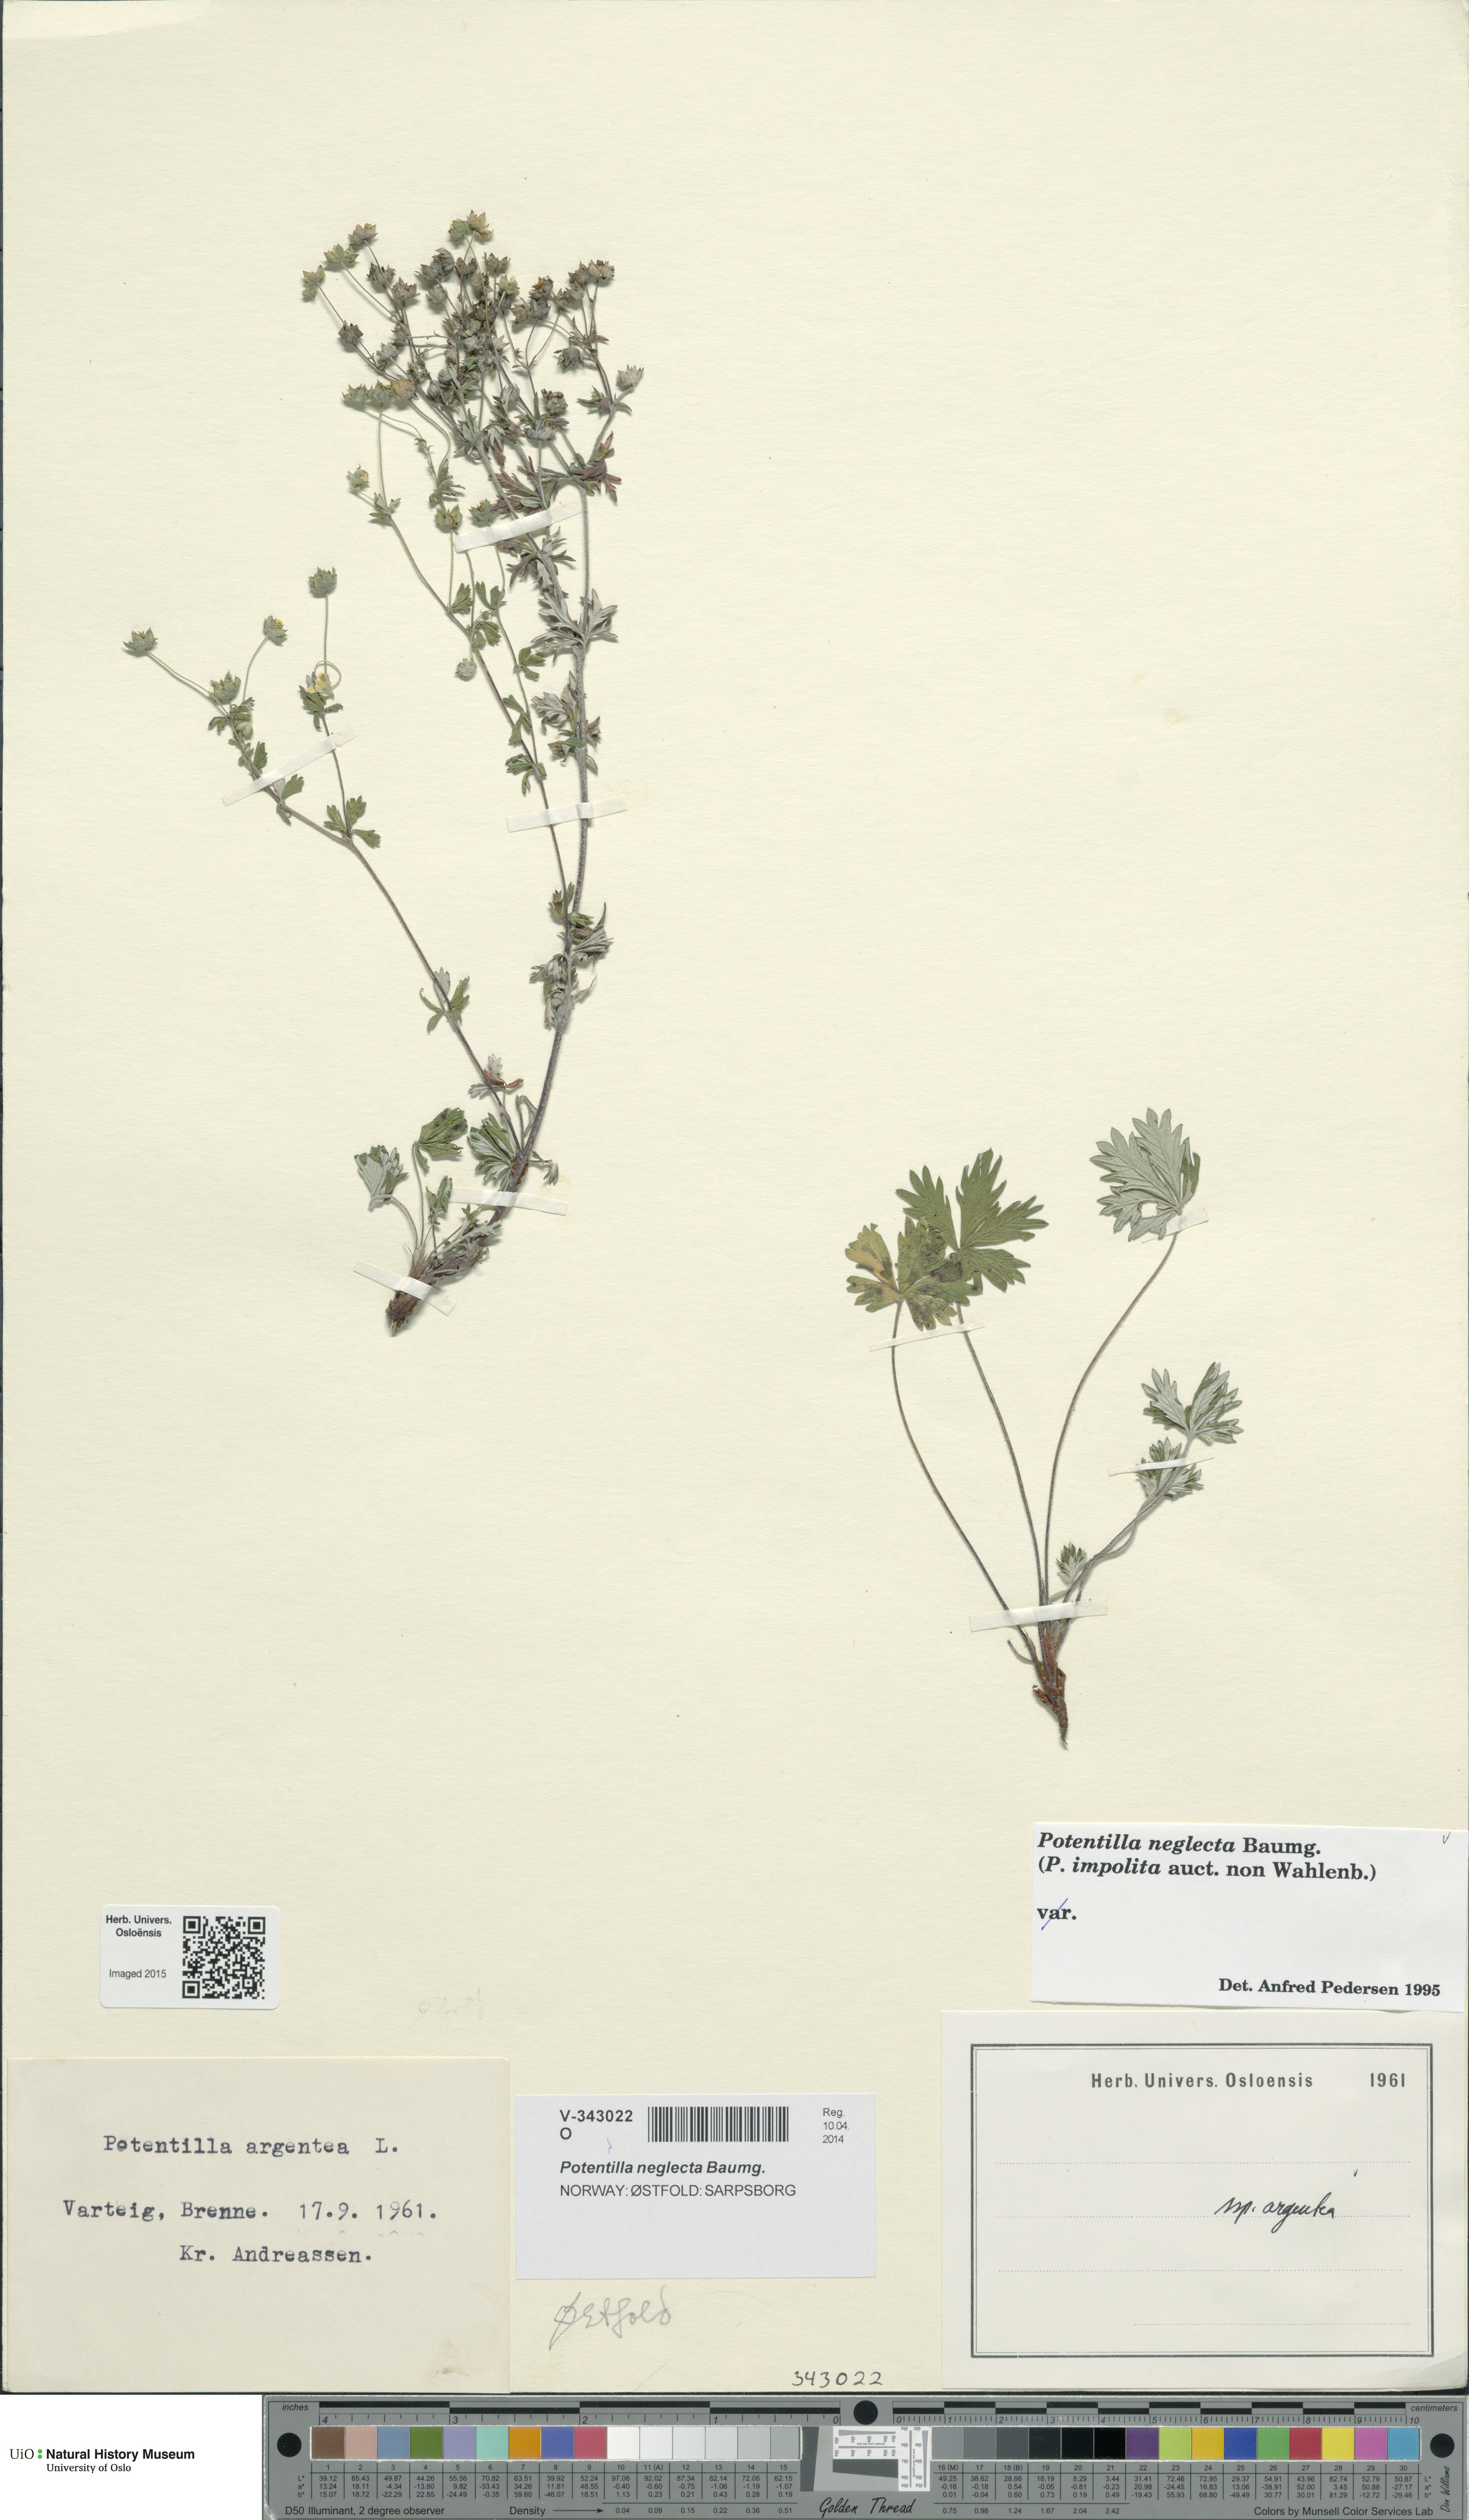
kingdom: Plantae
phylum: Tracheophyta
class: Magnoliopsida
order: Rosales
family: Rosaceae
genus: Potentilla
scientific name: Potentilla neglecta
